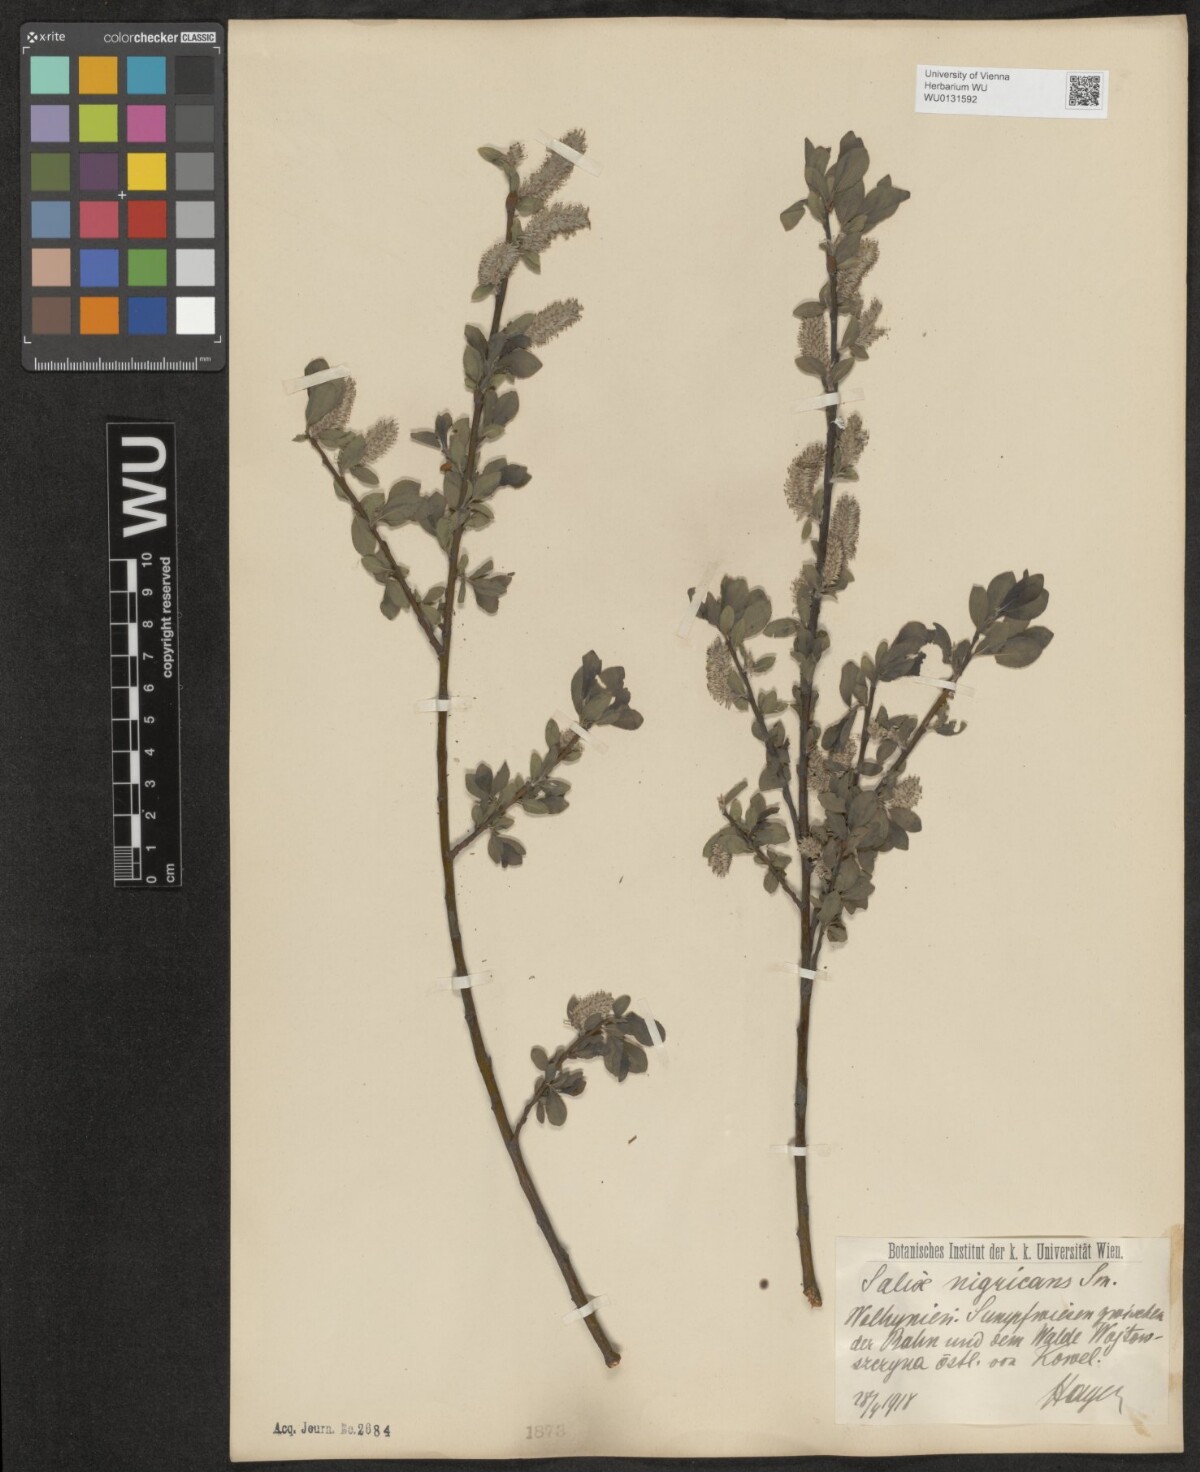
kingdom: Plantae
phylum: Tracheophyta
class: Magnoliopsida
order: Malpighiales
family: Salicaceae
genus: Salix
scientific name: Salix myrsinifolia
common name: Dark-leaved willow
